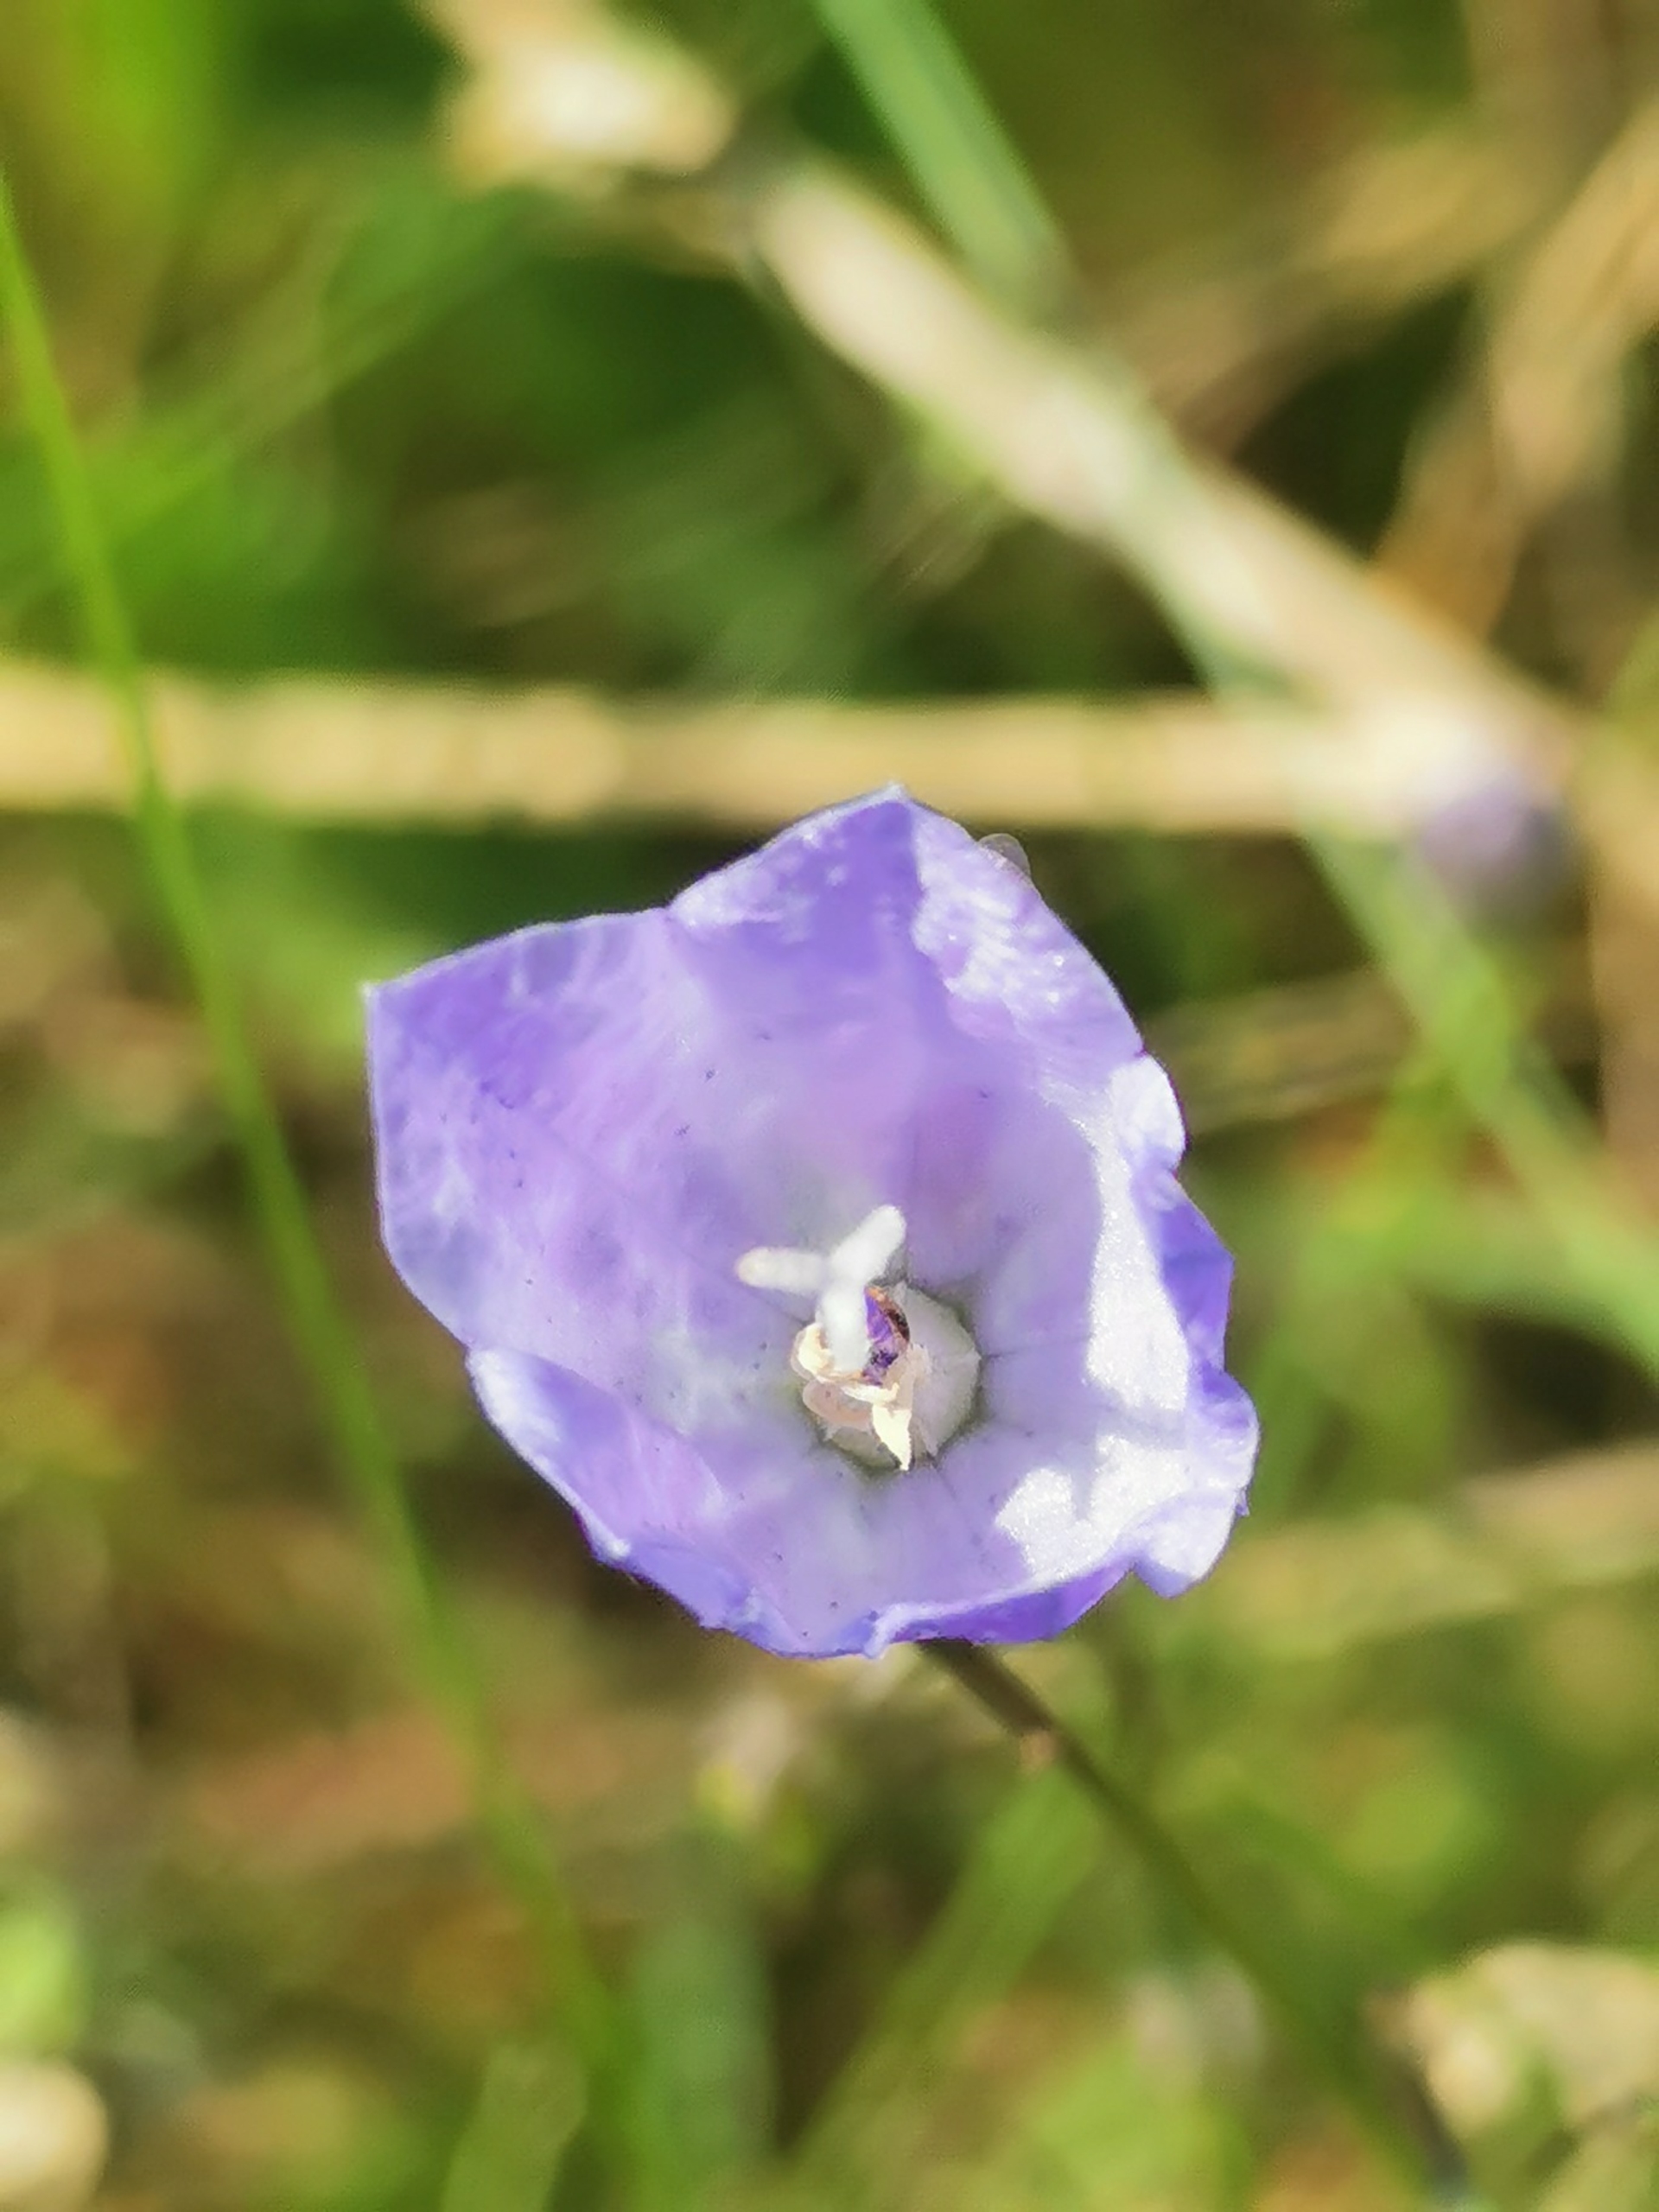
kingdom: Plantae
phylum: Tracheophyta
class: Magnoliopsida
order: Asterales
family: Campanulaceae
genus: Campanula
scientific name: Campanula rotundifolia
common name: Liden klokke
